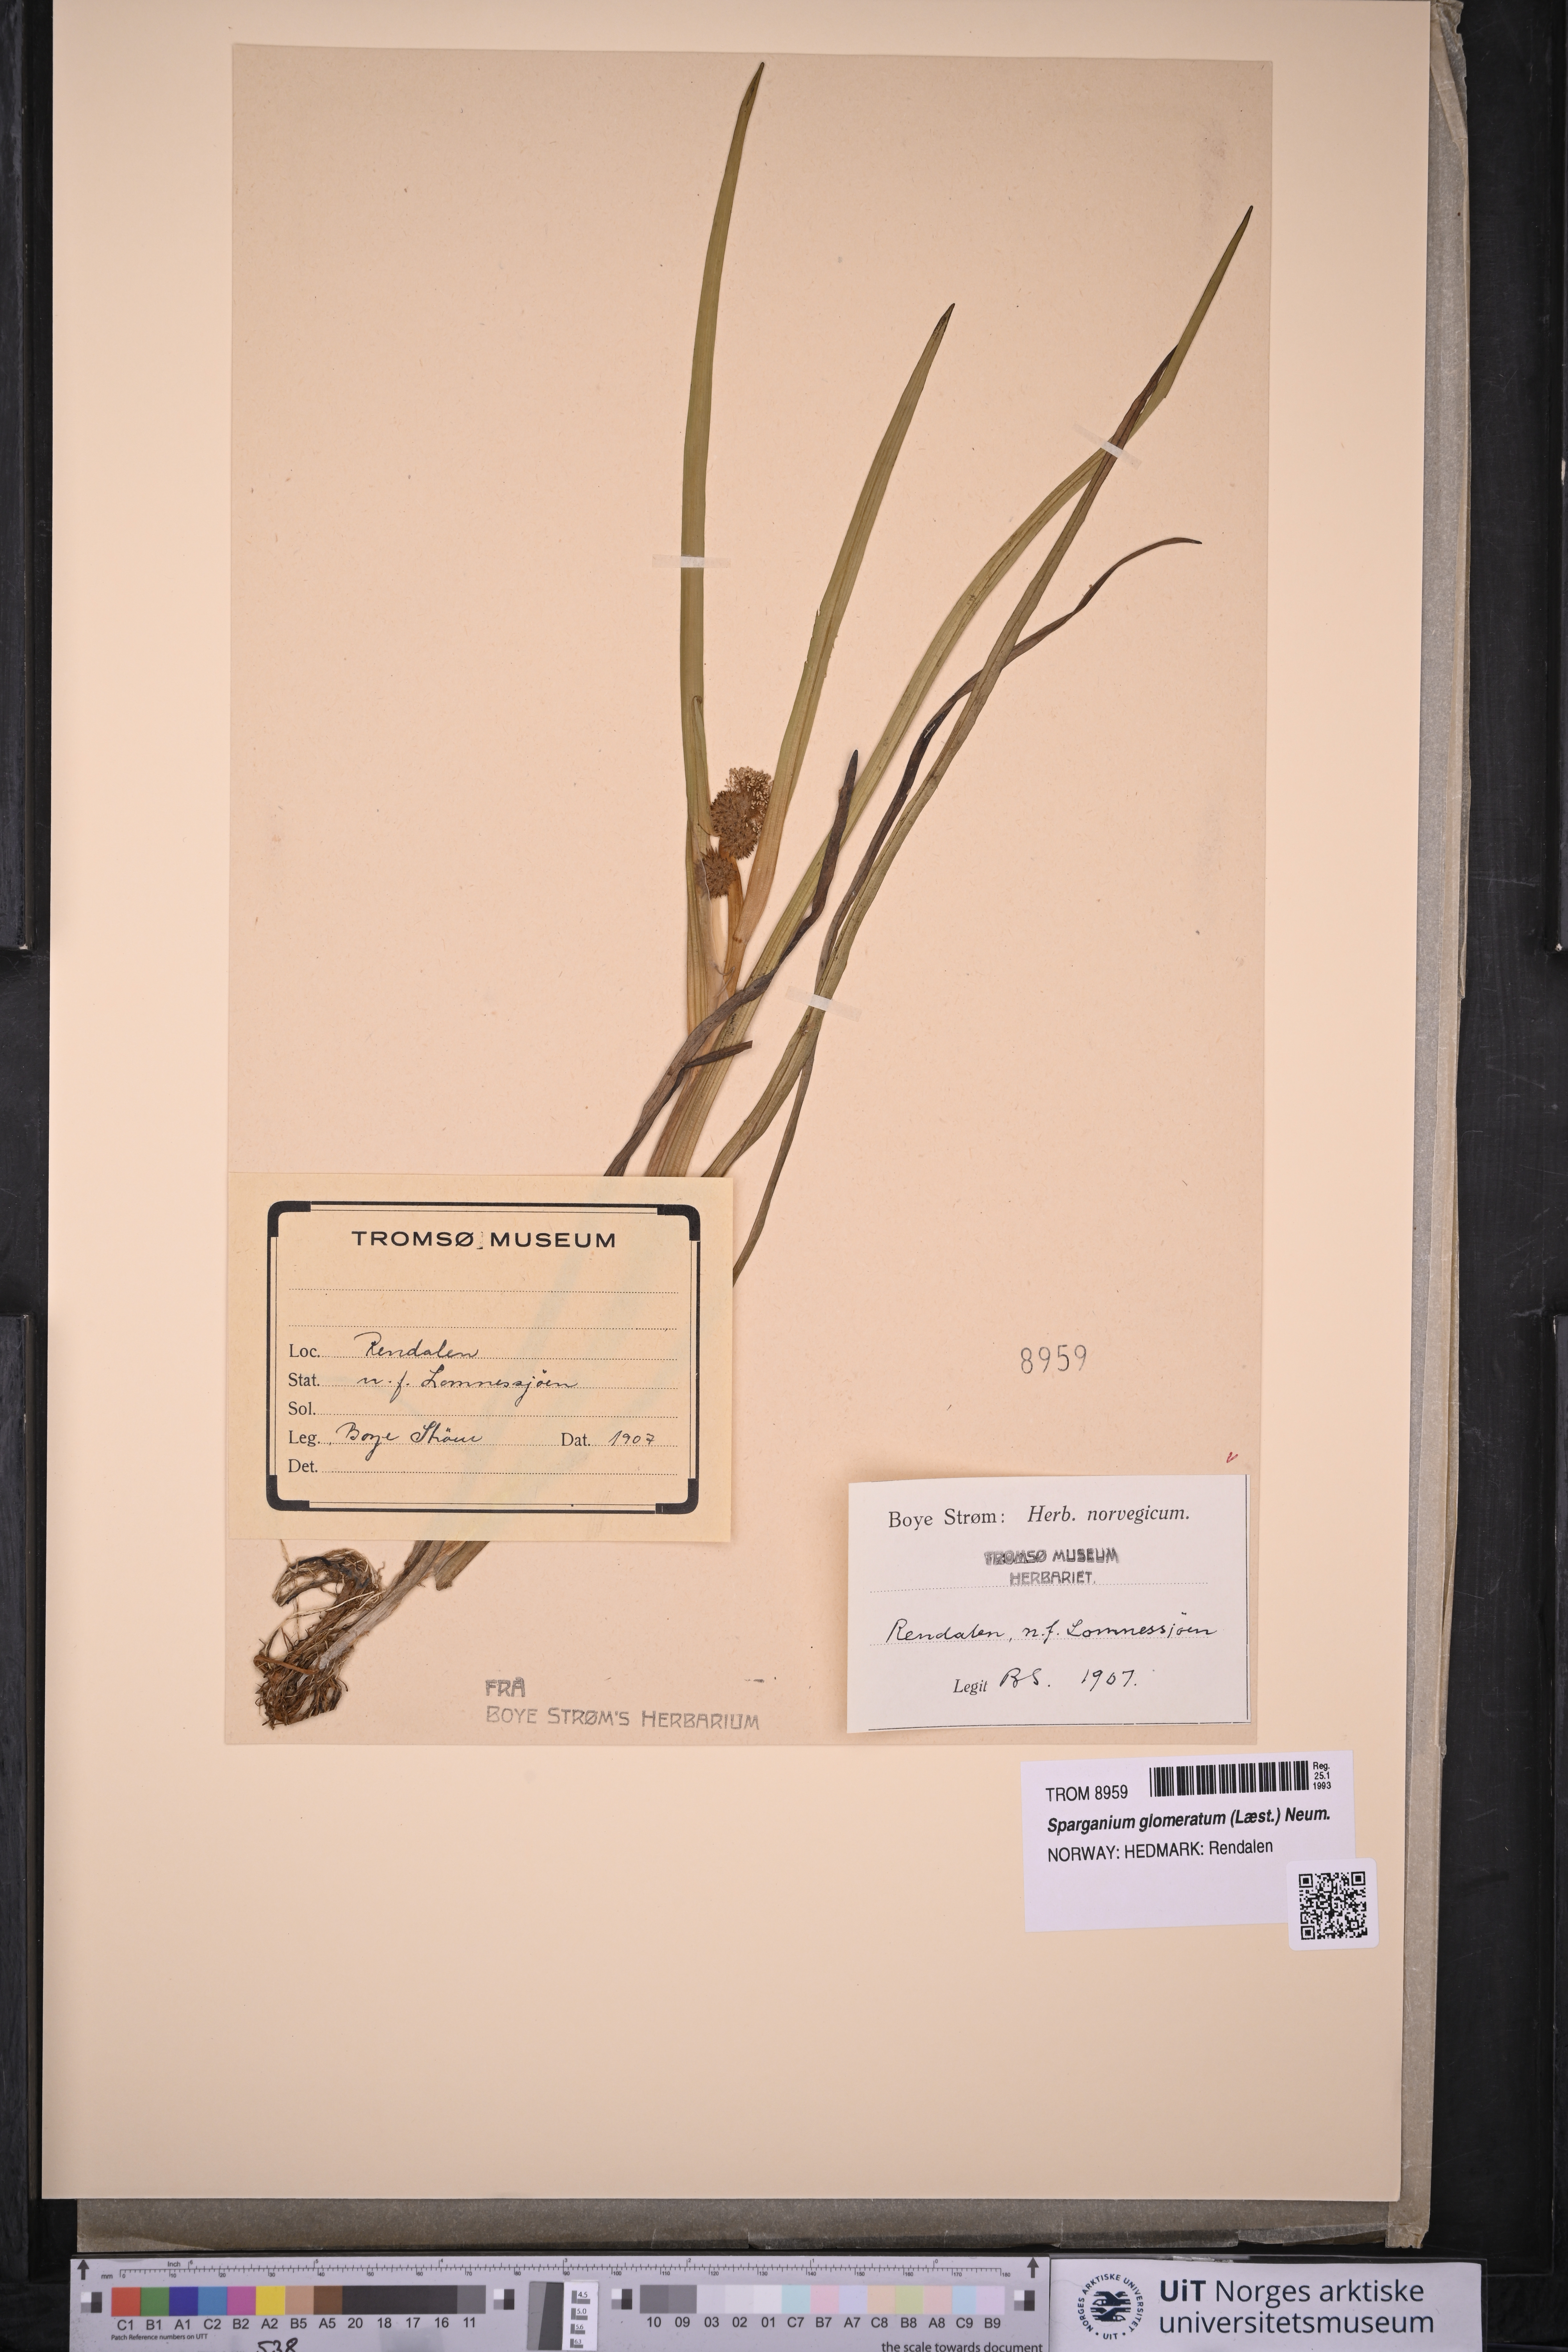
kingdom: Plantae
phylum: Tracheophyta
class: Liliopsida
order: Poales
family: Typhaceae
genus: Sparganium
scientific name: Sparganium glomeratum
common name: Clustered burreed
